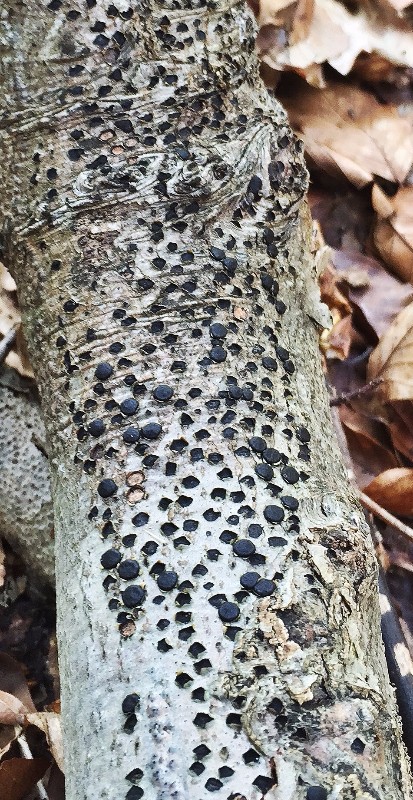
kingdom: Fungi
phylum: Ascomycota
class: Sordariomycetes
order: Xylariales
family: Diatrypaceae
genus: Diatrype
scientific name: Diatrype disciformis
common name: kant-kulskorpe
